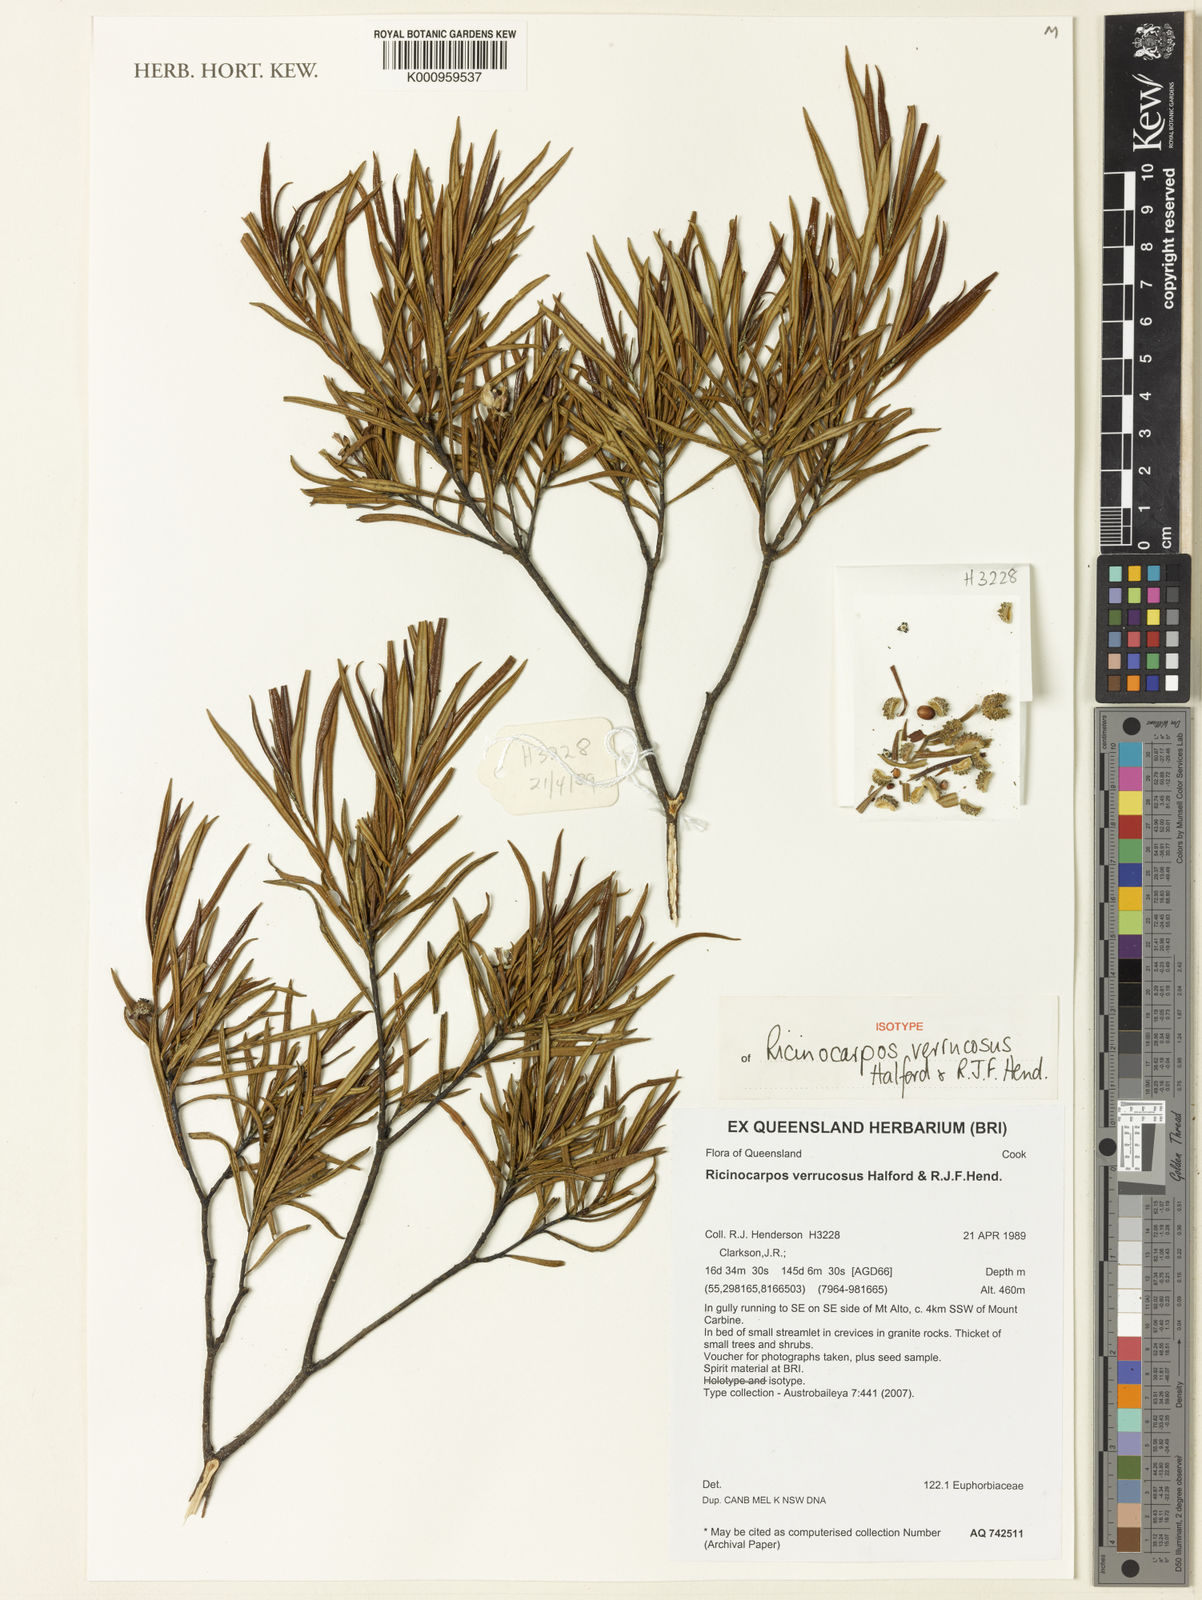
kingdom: Plantae
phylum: Tracheophyta
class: Magnoliopsida
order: Malpighiales
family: Euphorbiaceae
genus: Ricinocarpos
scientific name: Ricinocarpos verrucosus
